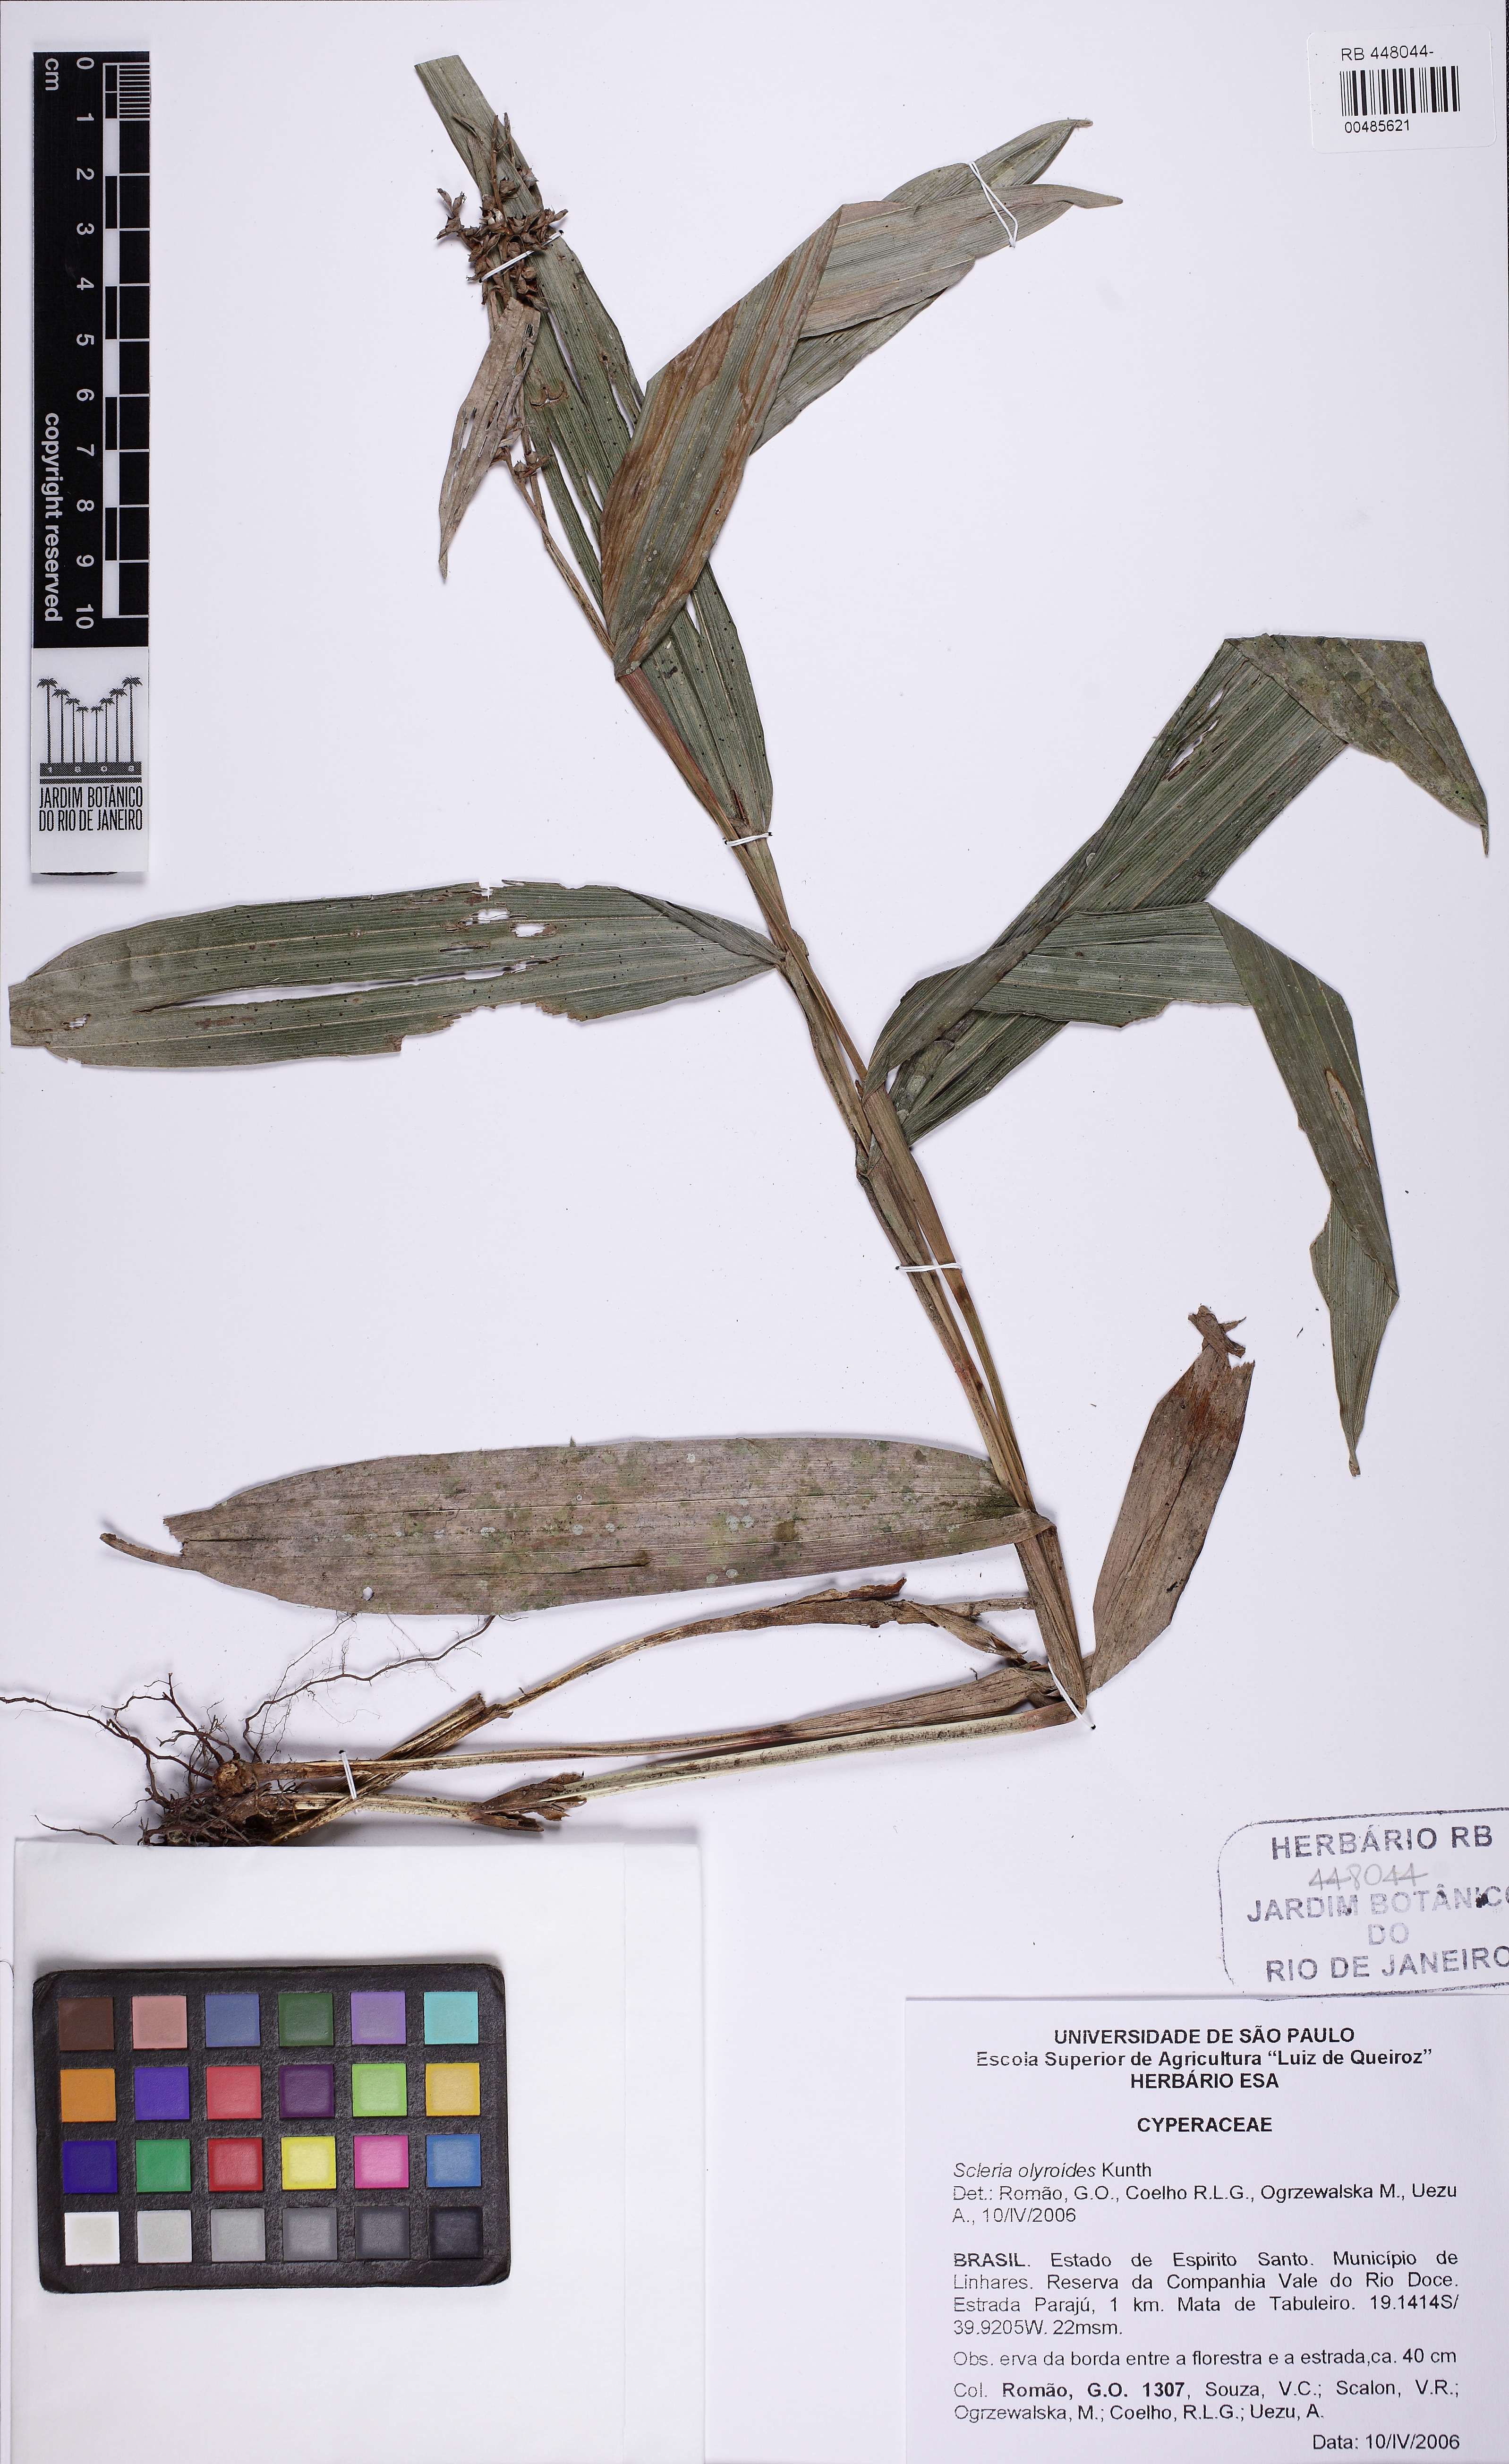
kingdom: Plantae
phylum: Tracheophyta
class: Liliopsida
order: Poales
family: Cyperaceae
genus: Scleria
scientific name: Scleria latifolia
